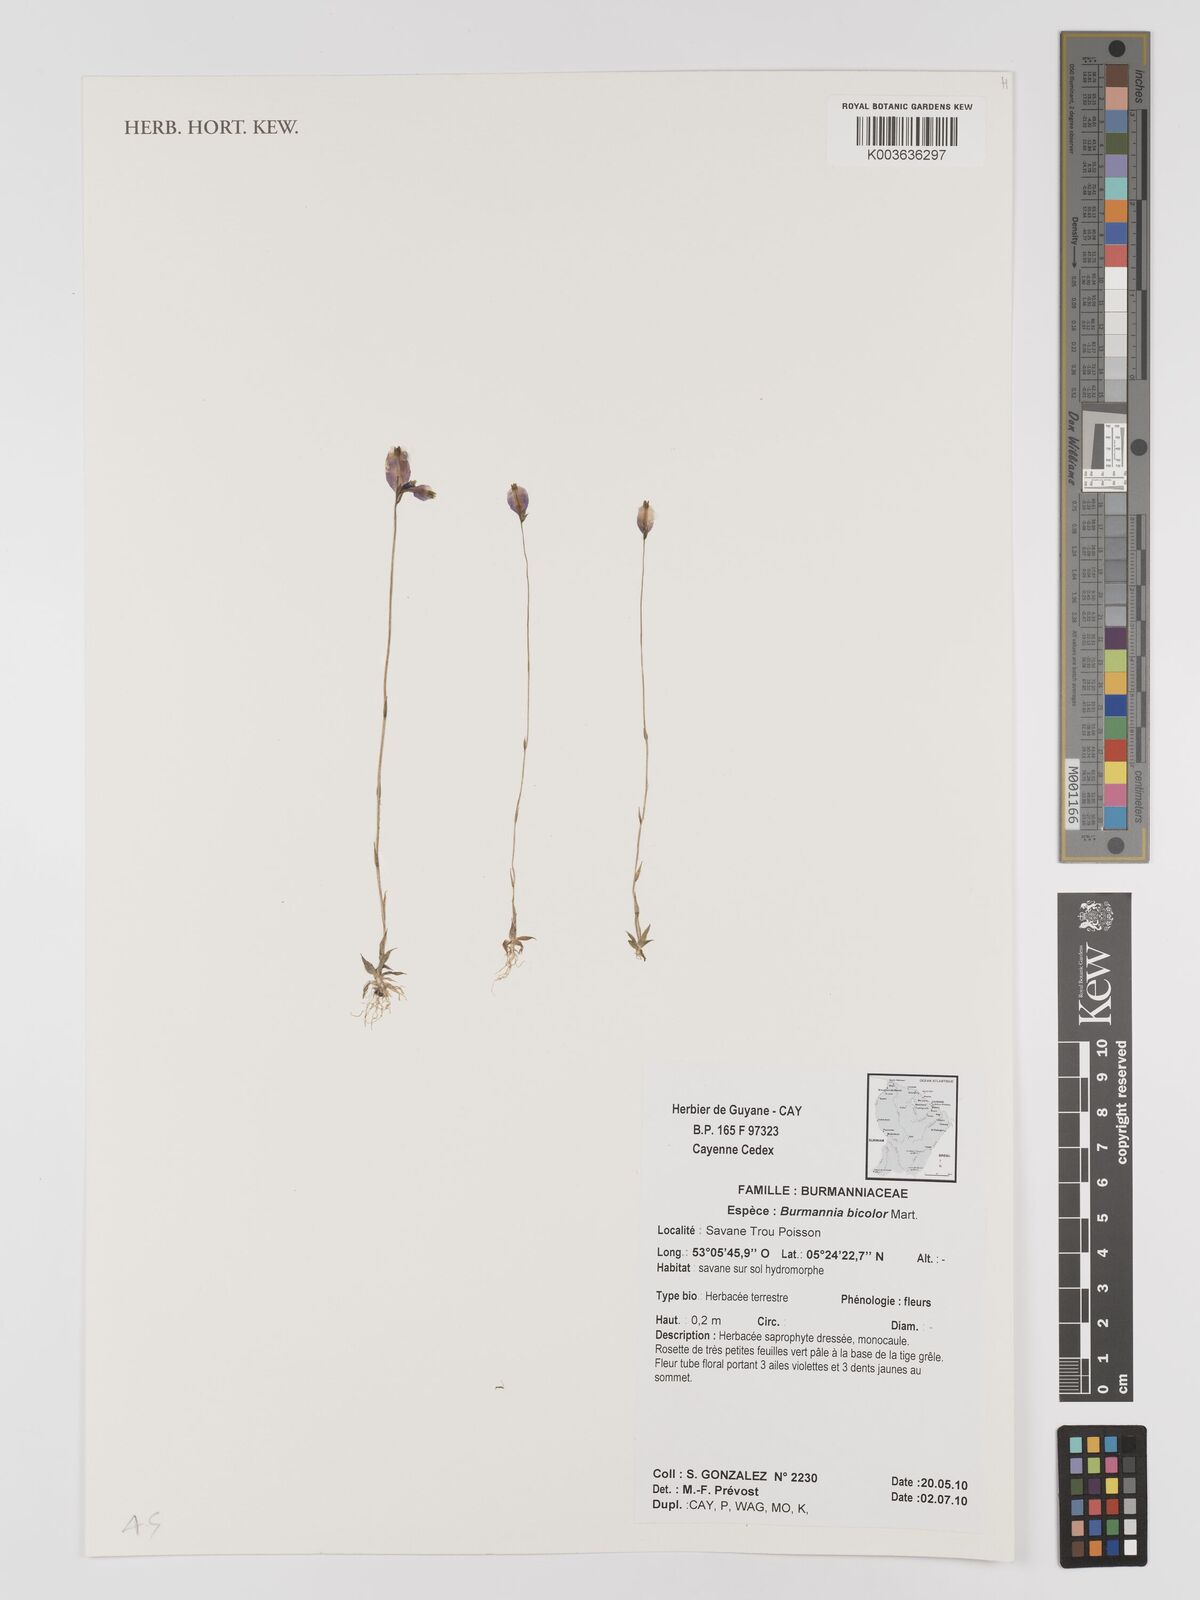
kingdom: Plantae
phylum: Tracheophyta
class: Liliopsida
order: Dioscoreales
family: Burmanniaceae
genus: Burmannia
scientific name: Burmannia bicolor
